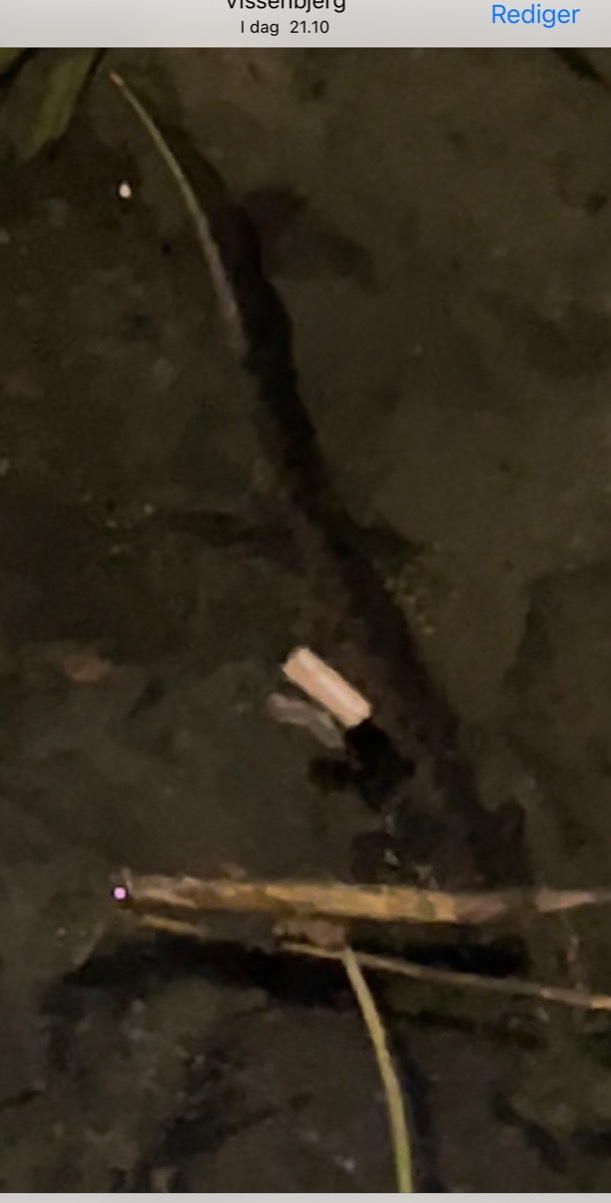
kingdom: Animalia
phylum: Chordata
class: Amphibia
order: Caudata
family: Salamandridae
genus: Triturus
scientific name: Triturus cristatus
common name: Stor vandsalamander
